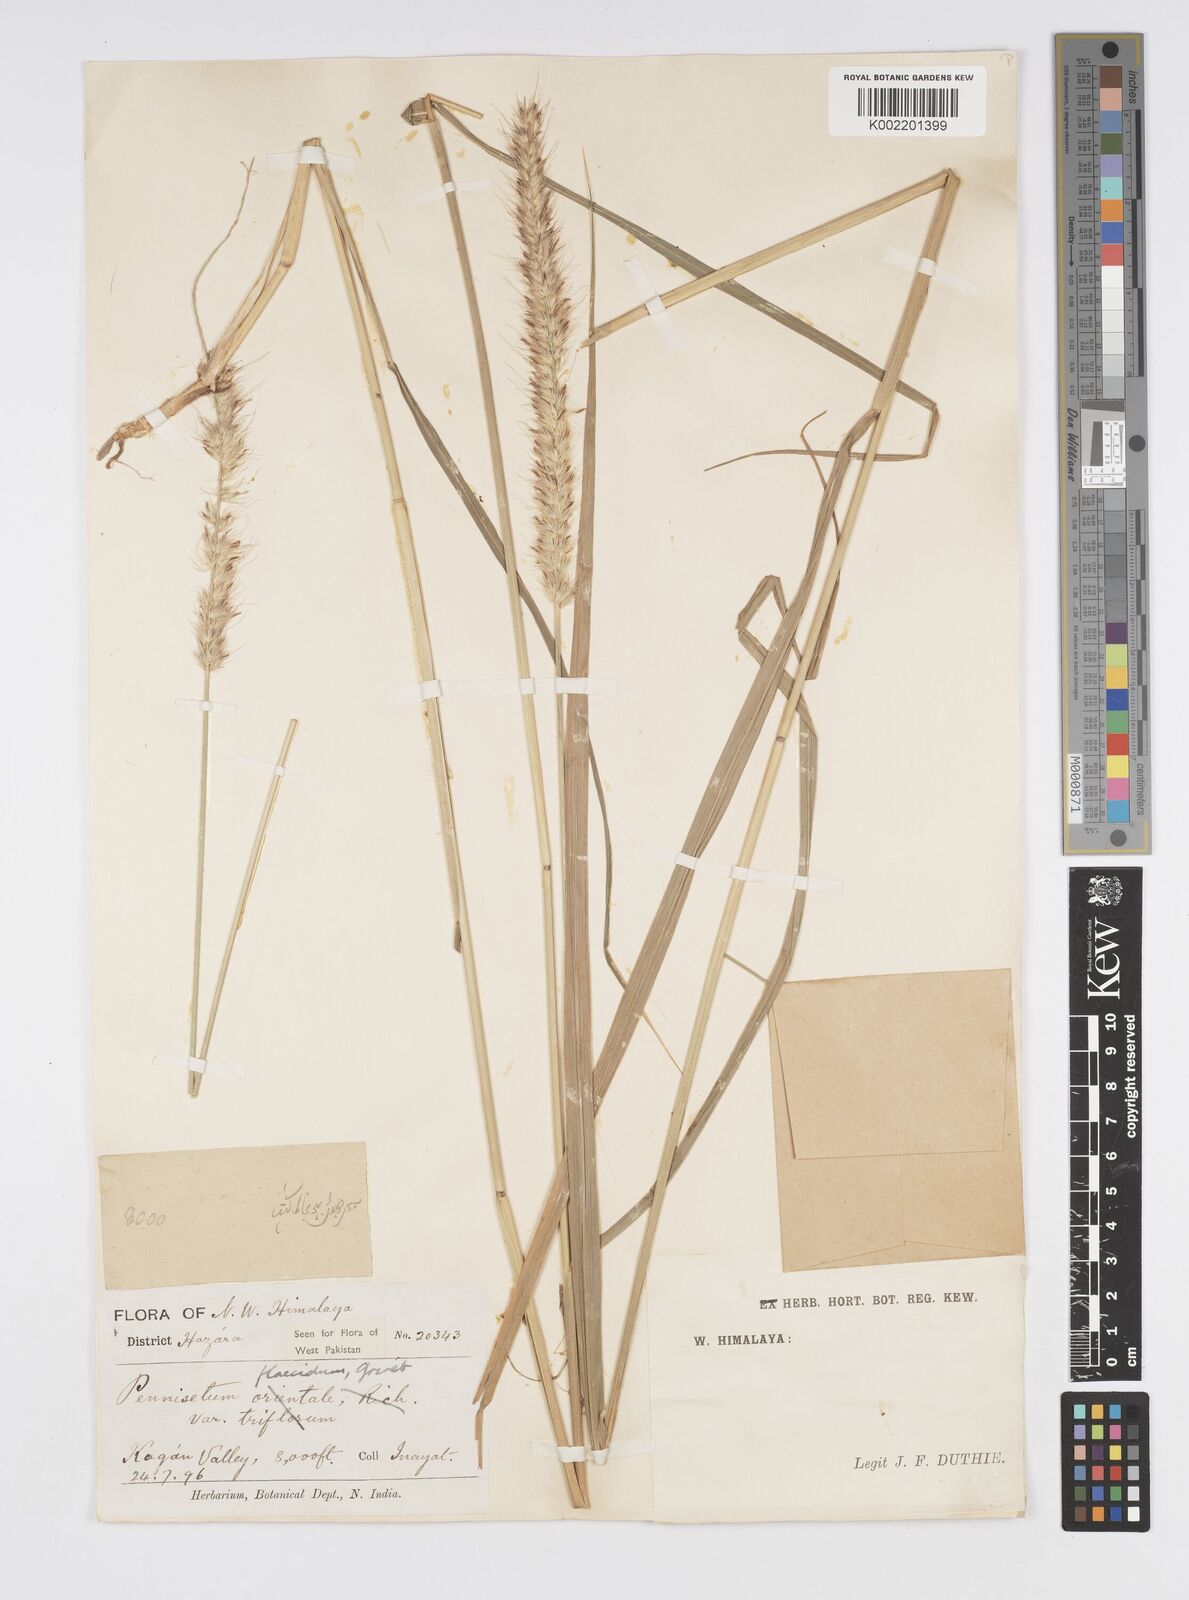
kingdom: Plantae
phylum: Tracheophyta
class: Liliopsida
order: Poales
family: Poaceae
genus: Cenchrus
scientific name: Cenchrus flaccidus
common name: Flaccid grass
